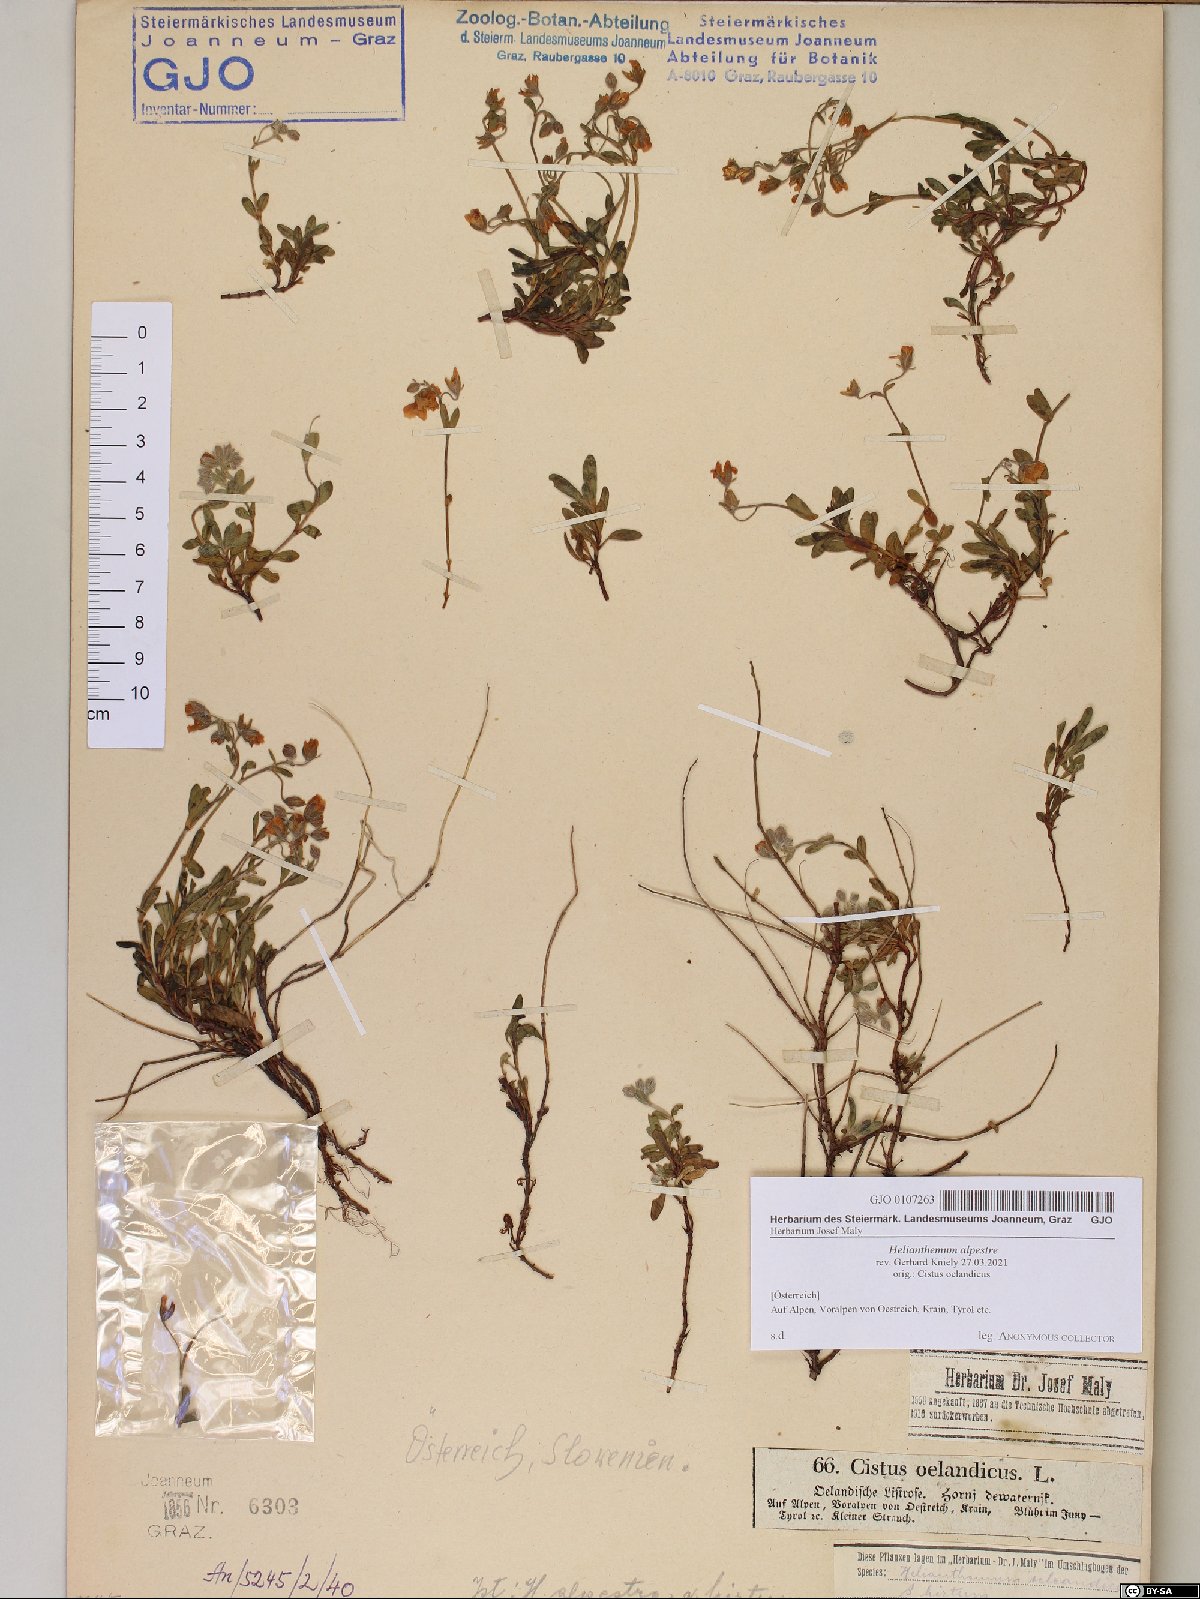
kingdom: Plantae
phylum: Tracheophyta
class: Magnoliopsida
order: Malvales
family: Cistaceae
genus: Helianthemum
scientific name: Helianthemum alpestre
